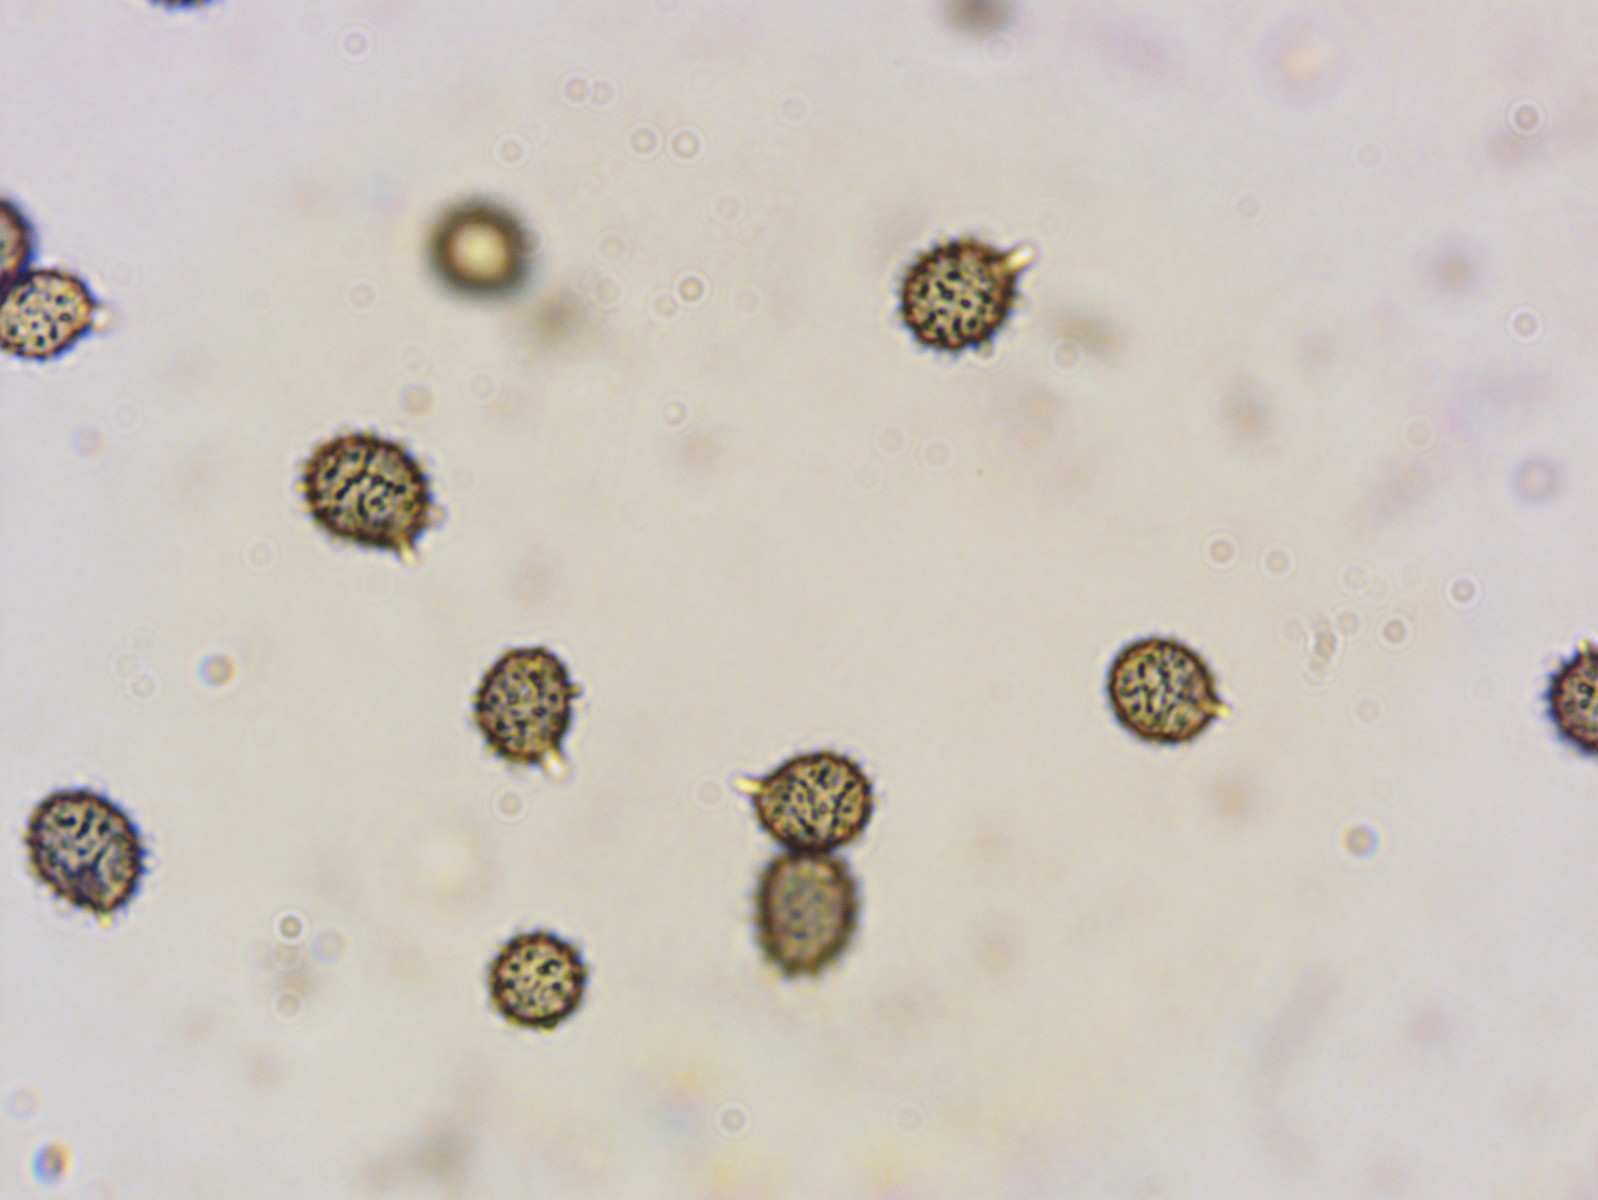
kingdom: Fungi
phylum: Basidiomycota
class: Agaricomycetes
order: Russulales
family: Russulaceae
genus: Russula
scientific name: Russula odorata
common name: duft-skørhat
